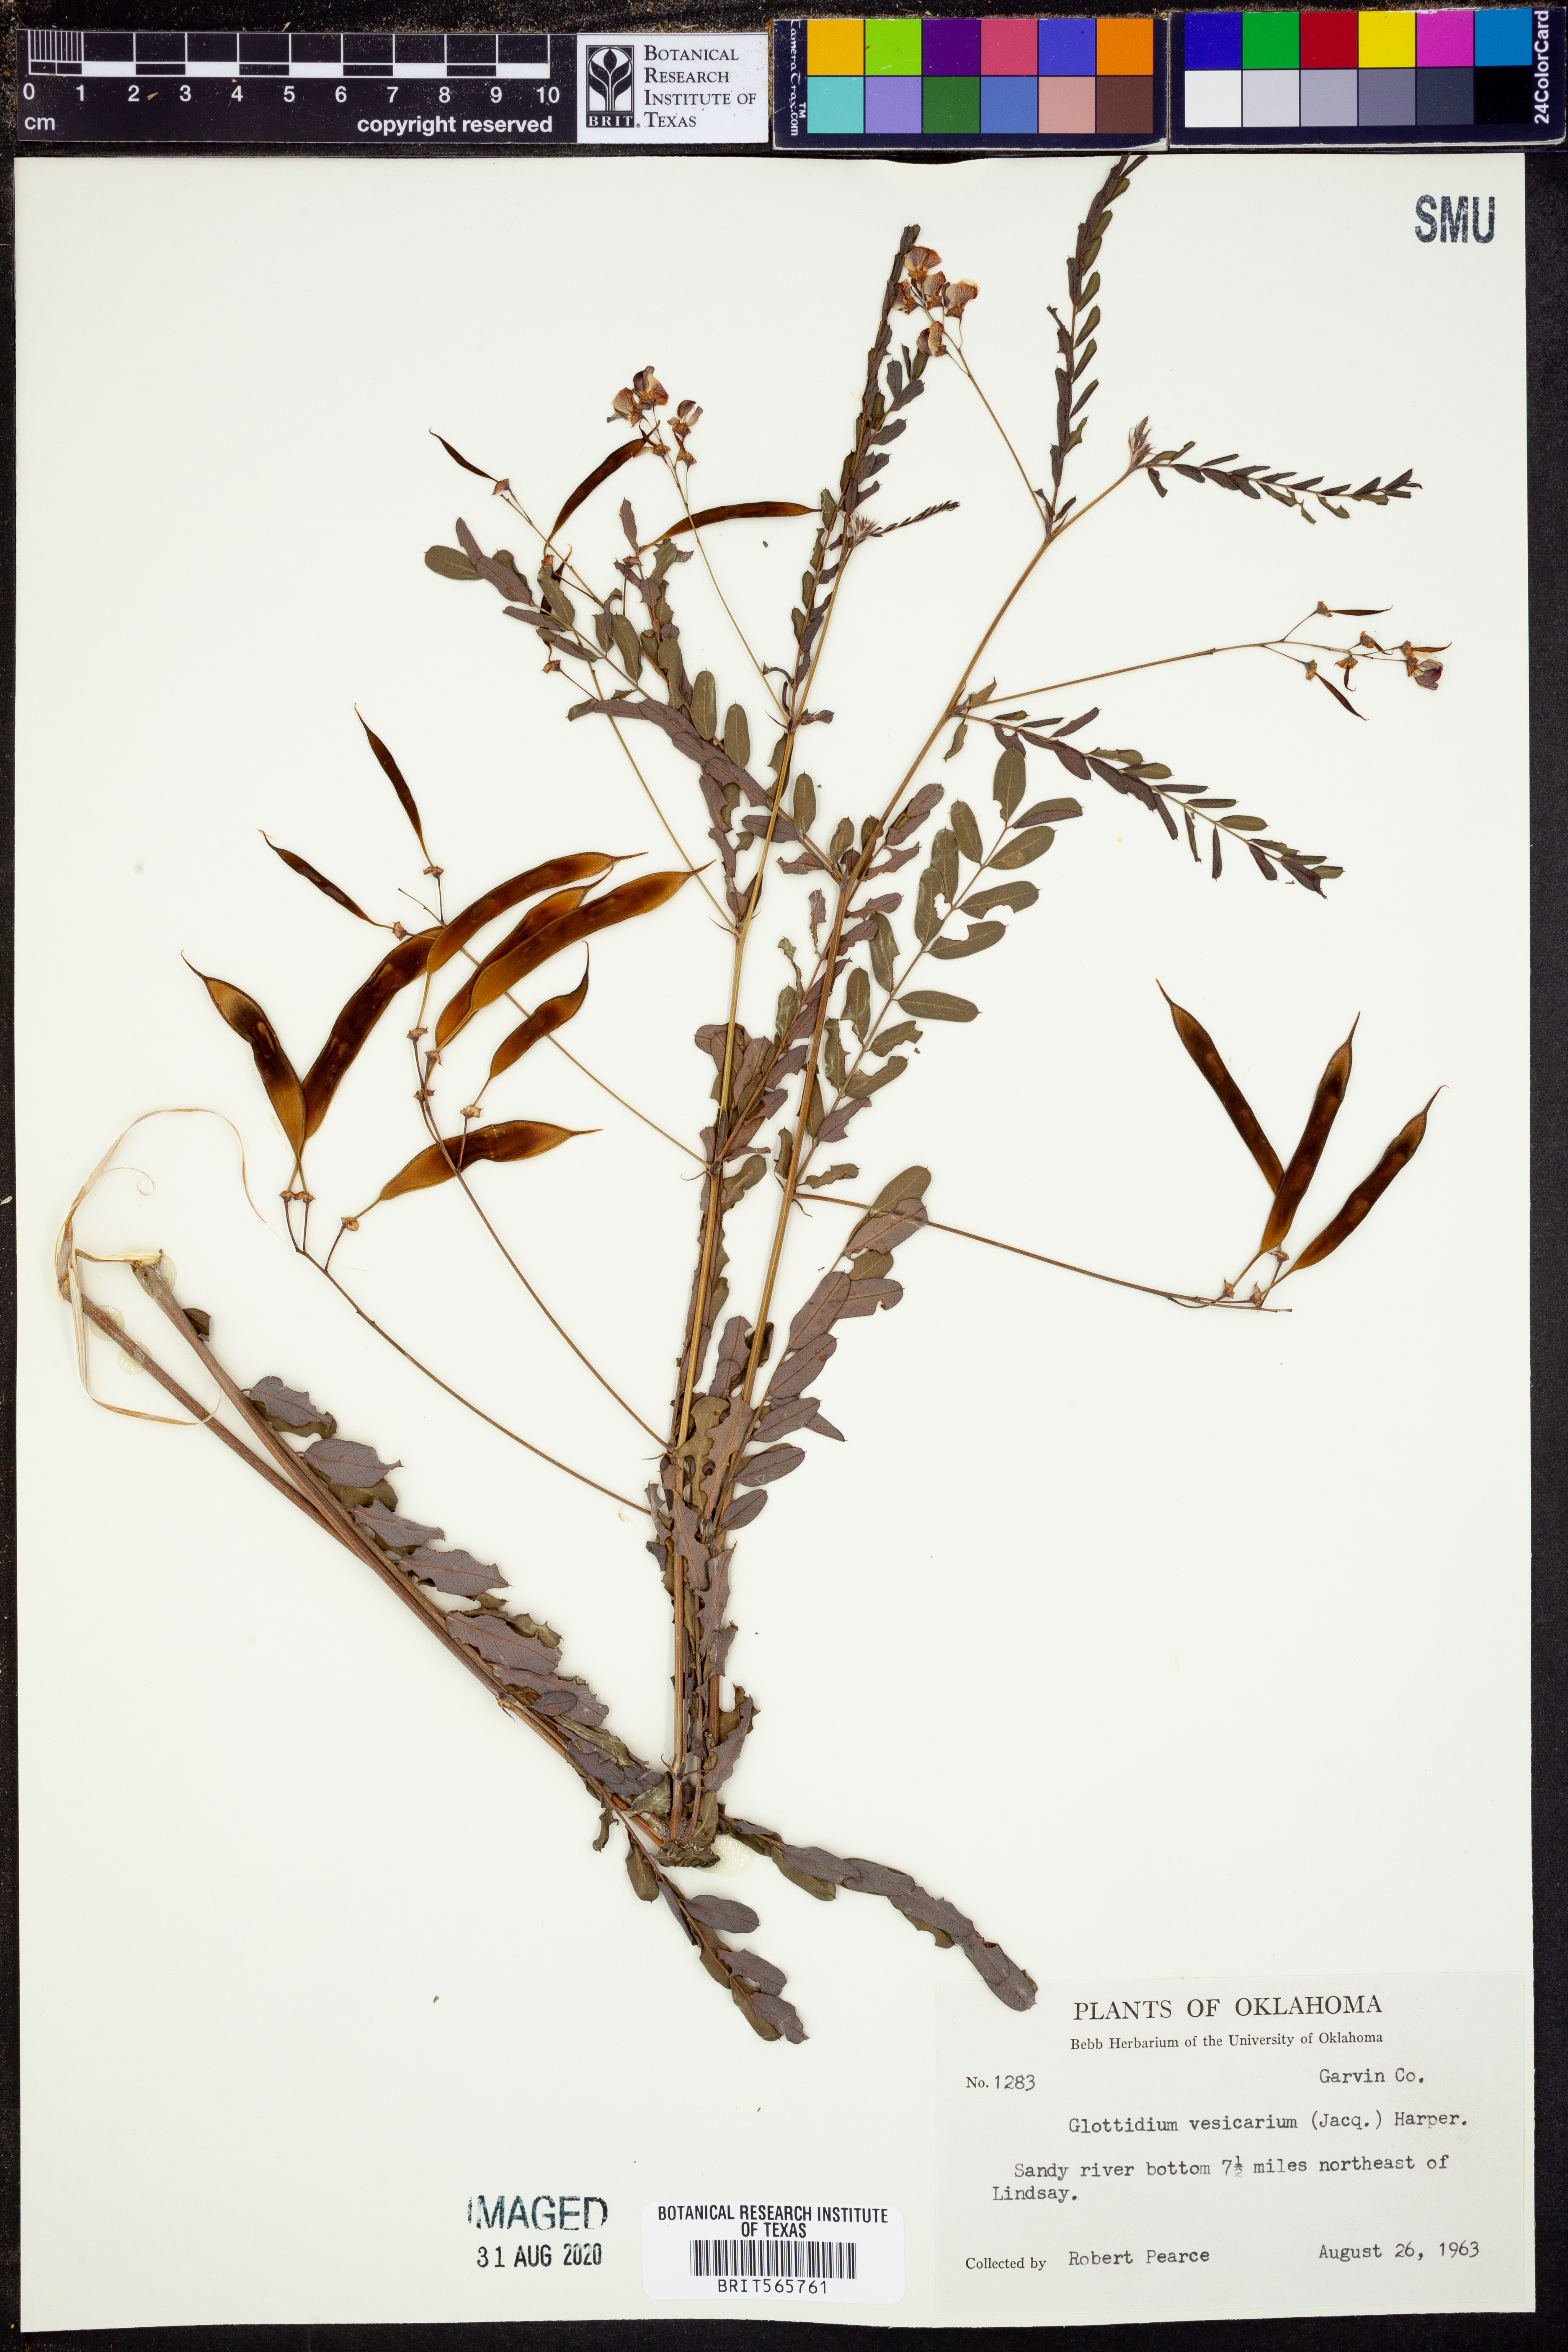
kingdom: Plantae
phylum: Tracheophyta
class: Magnoliopsida
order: Fabales
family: Fabaceae
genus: Sesbania
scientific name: Sesbania vesicaria
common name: Bagpod
